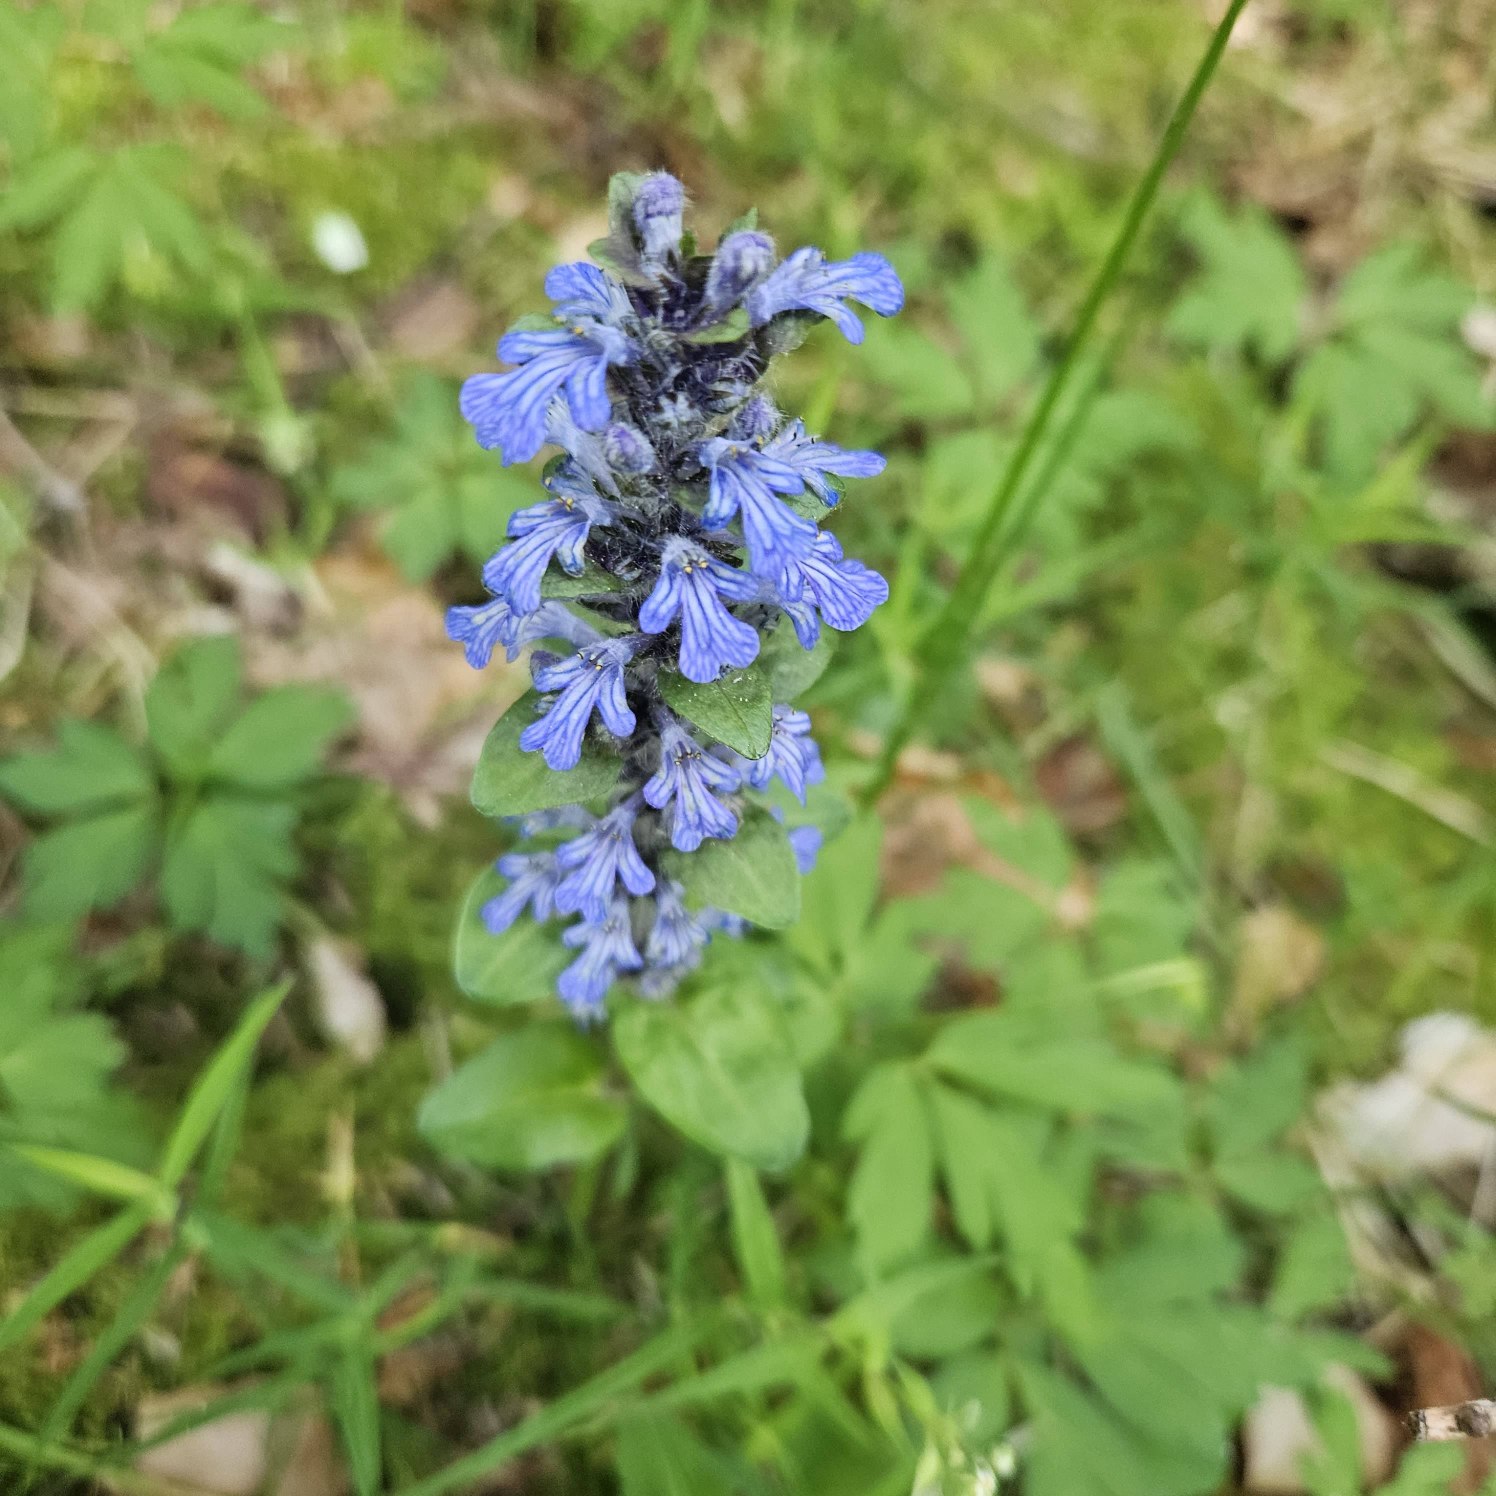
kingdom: Plantae
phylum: Tracheophyta
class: Magnoliopsida
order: Lamiales
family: Lamiaceae
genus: Ajuga
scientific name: Ajuga reptans
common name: Krybende læbeløs
